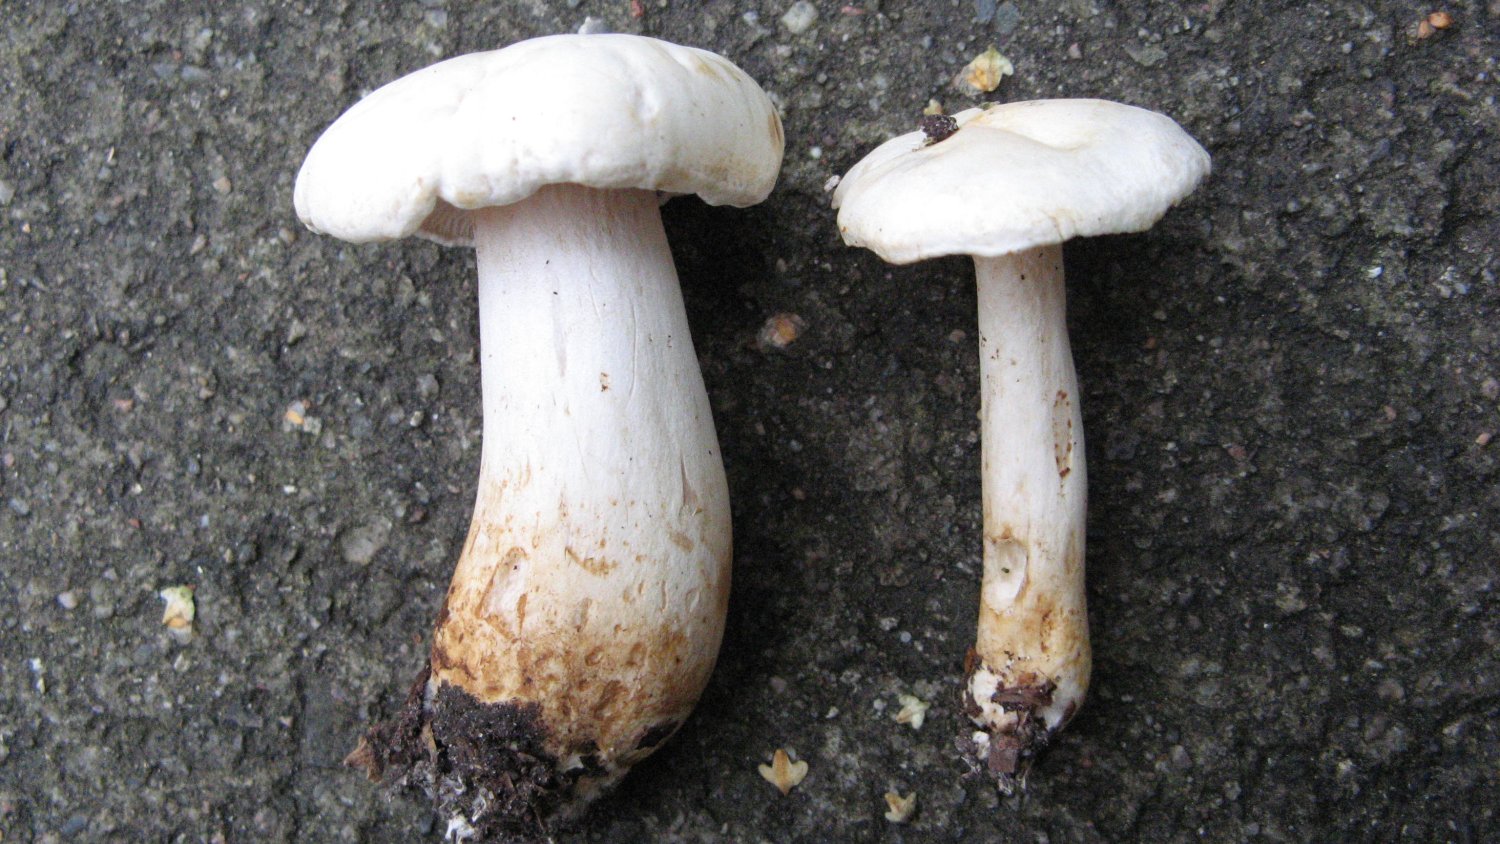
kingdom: Fungi
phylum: Basidiomycota
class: Agaricomycetes
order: Agaricales
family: Tricholomataceae
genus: Tricholoma
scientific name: Tricholoma stiparophyllum
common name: hvid ridderhat
